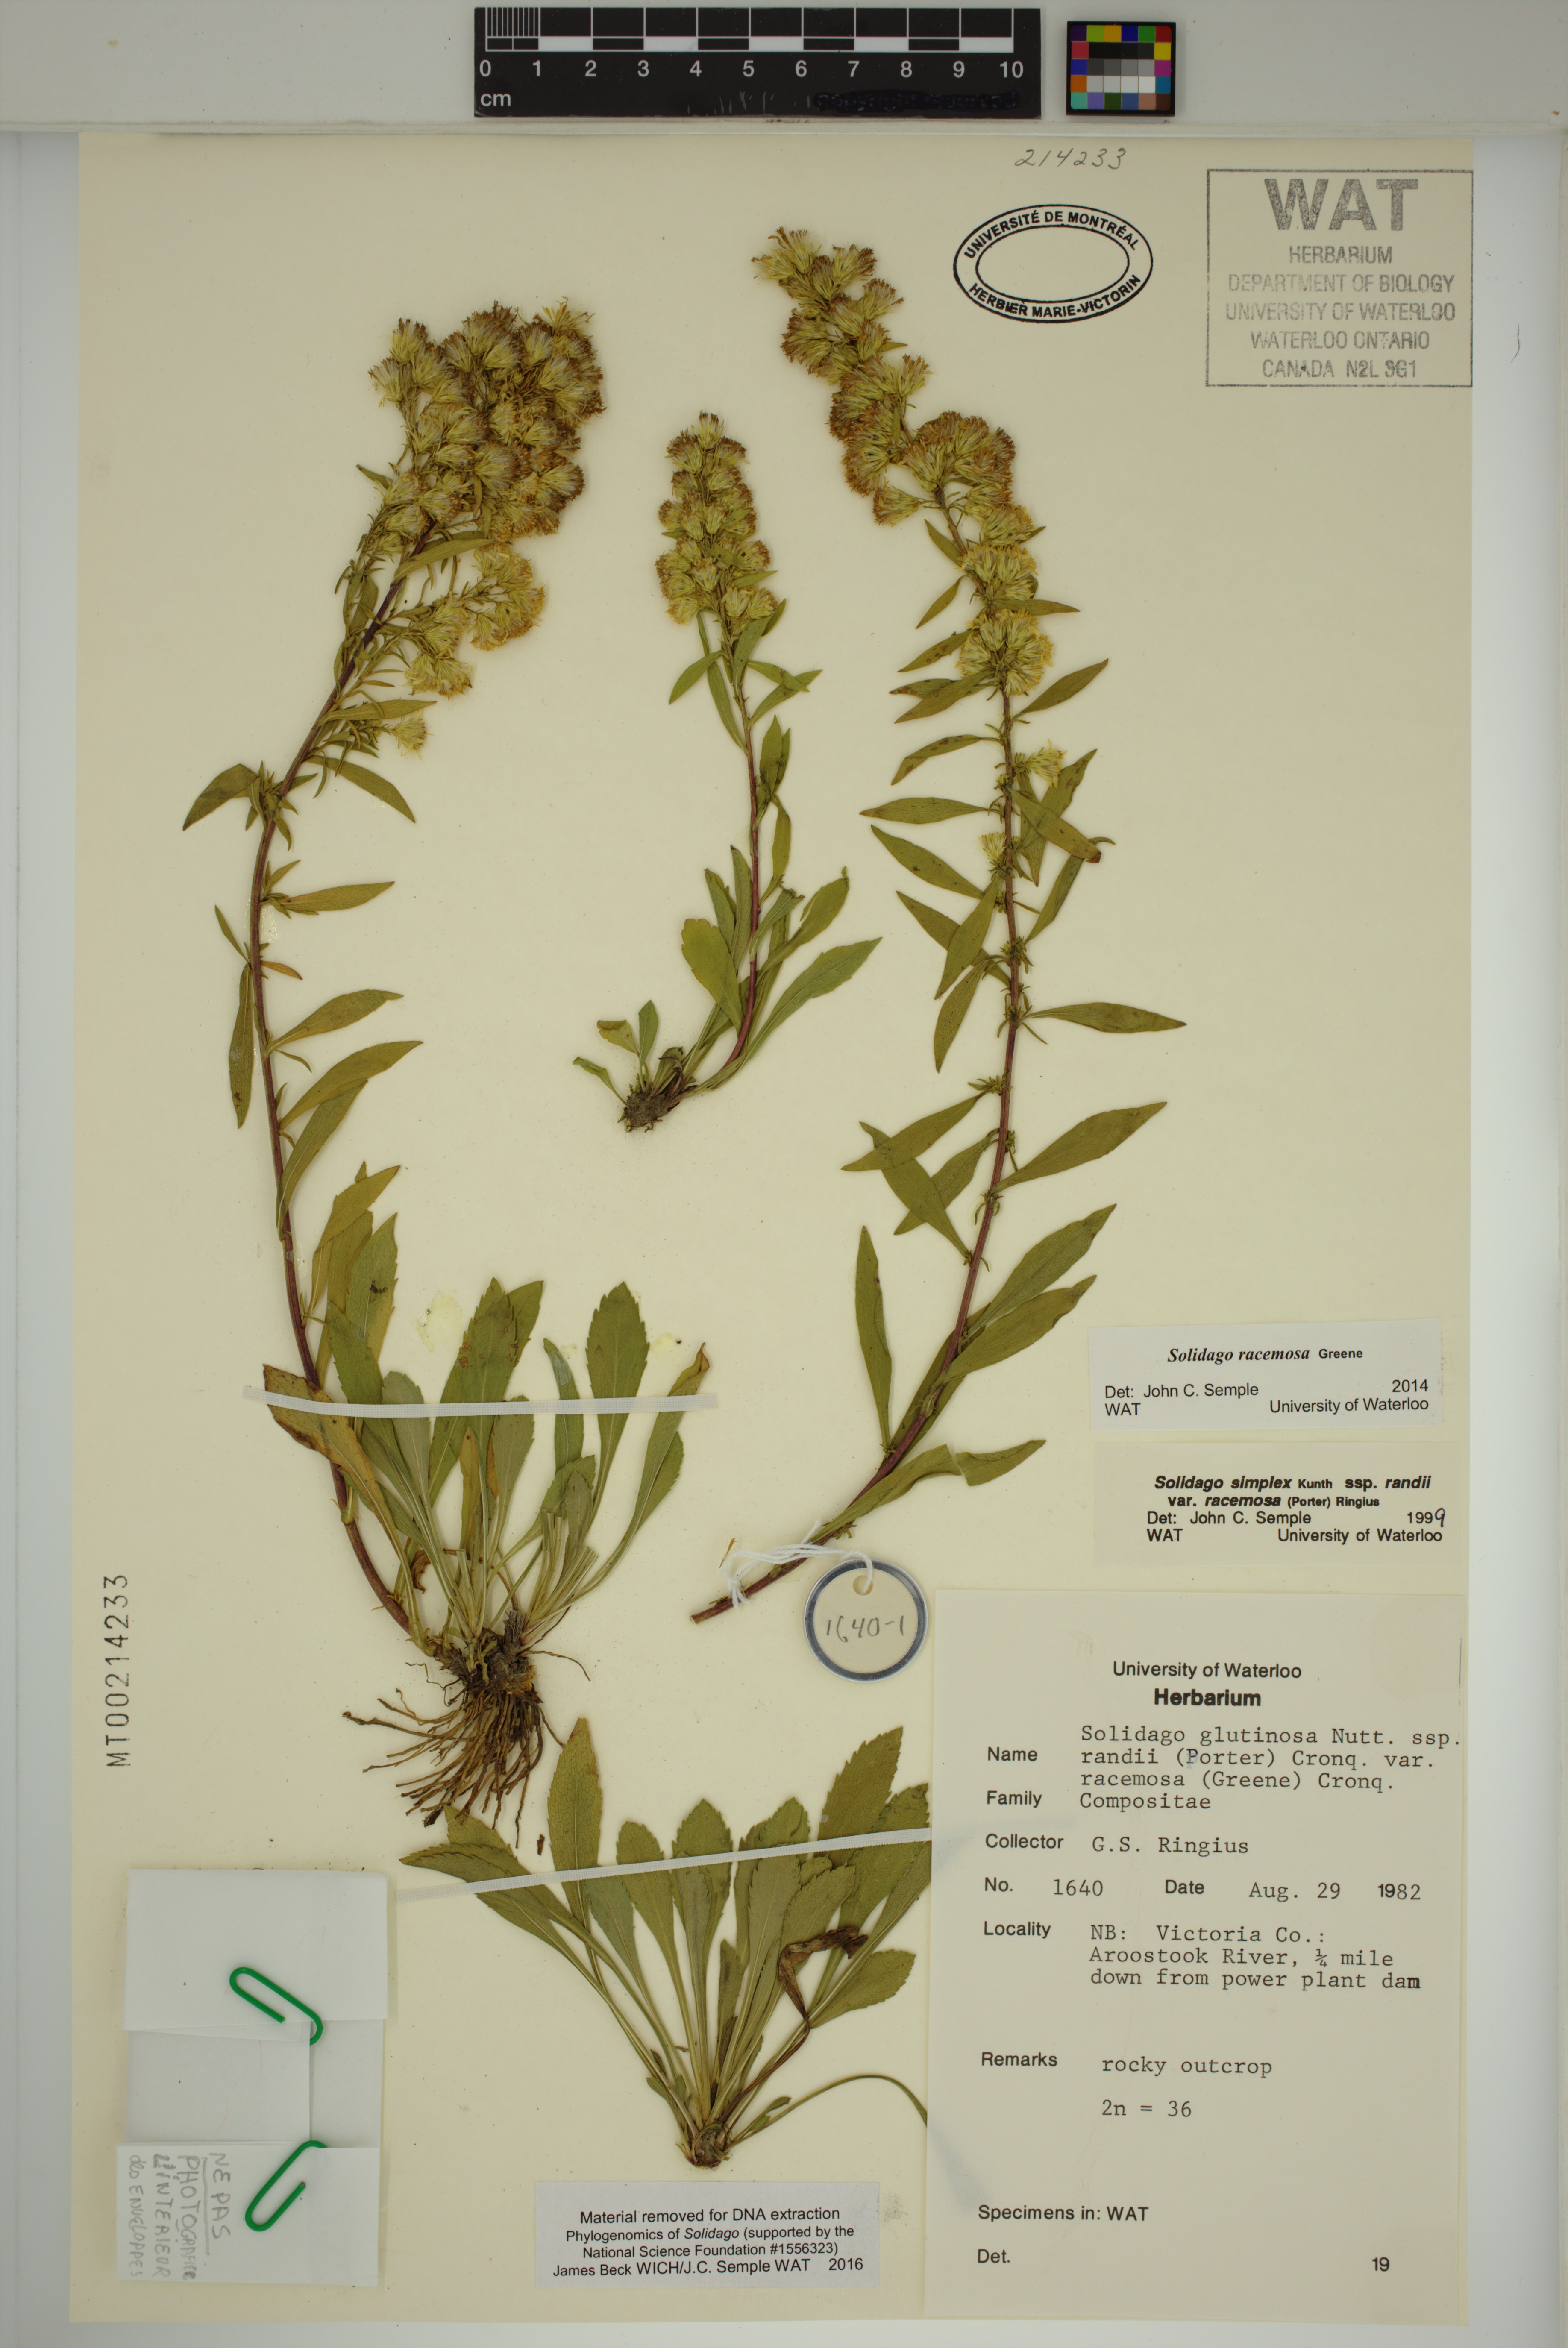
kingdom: Plantae
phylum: Tracheophyta
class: Magnoliopsida
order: Asterales
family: Asteraceae
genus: Solidago
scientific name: Solidago racemosa
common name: Lake ontario goldenrod
